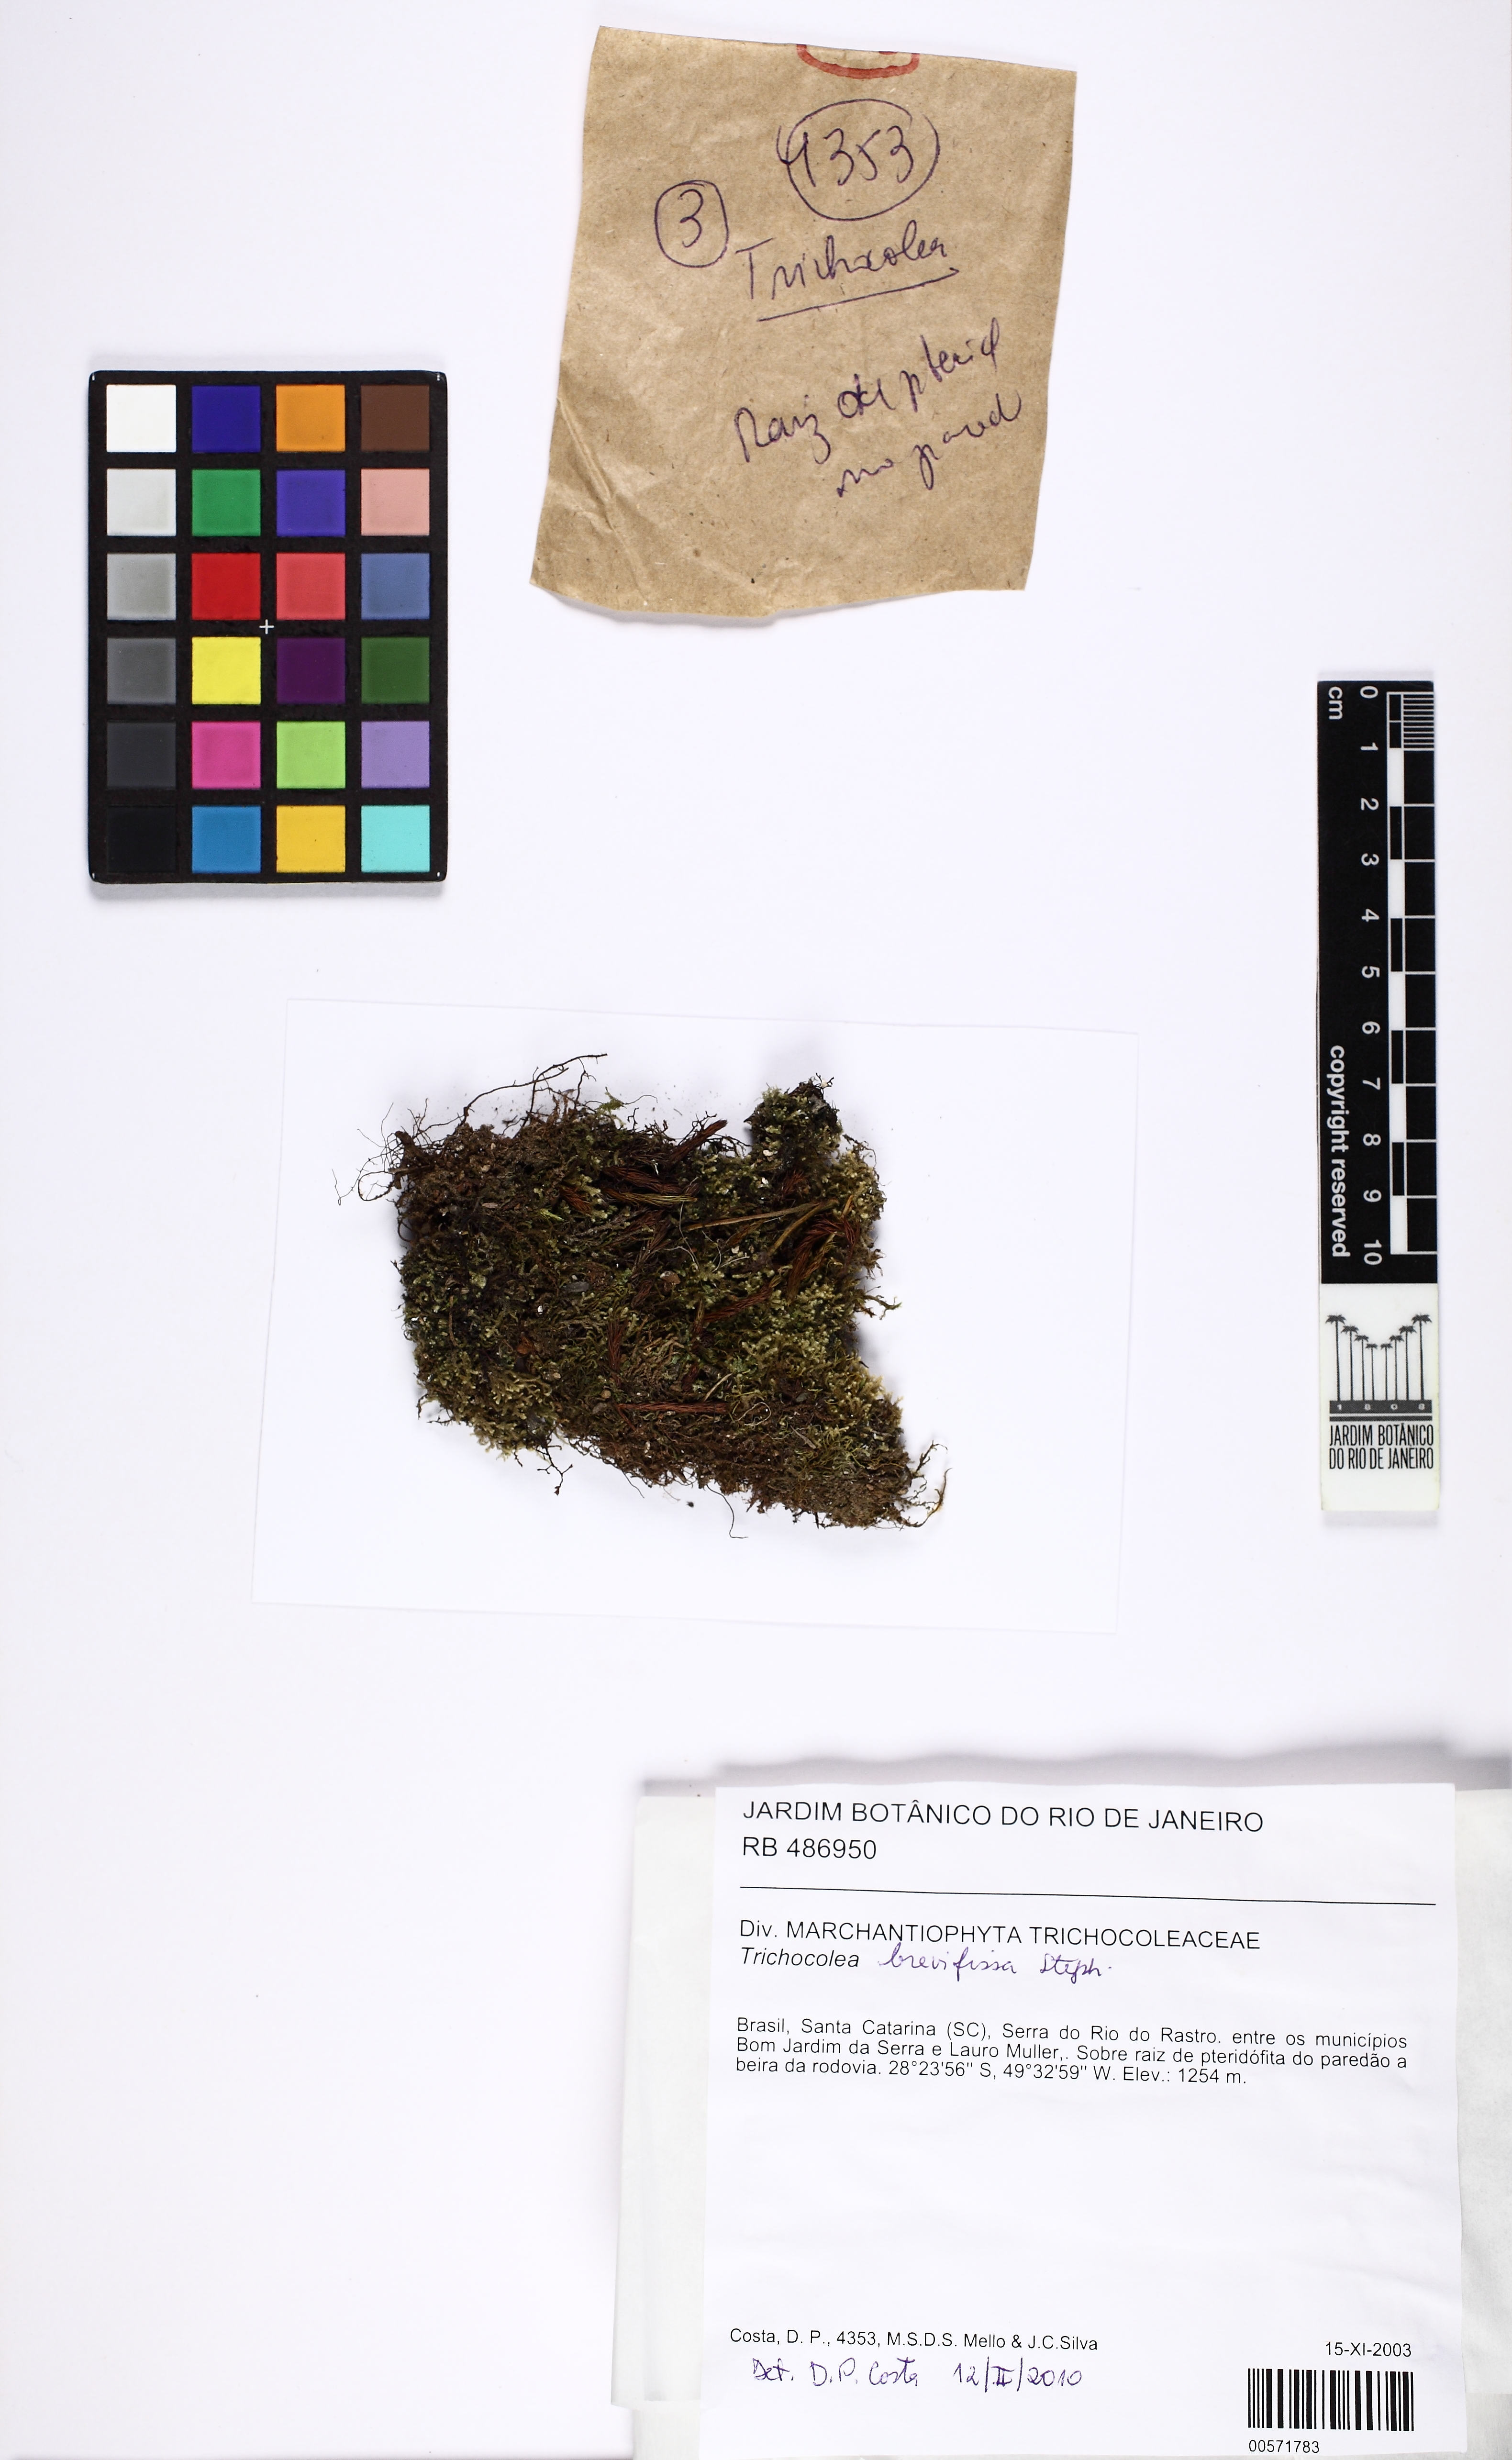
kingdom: Plantae
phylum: Marchantiophyta
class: Jungermanniopsida
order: Jungermanniales
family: Trichocoleaceae
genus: Leiomitra
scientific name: Leiomitra brevifissa
